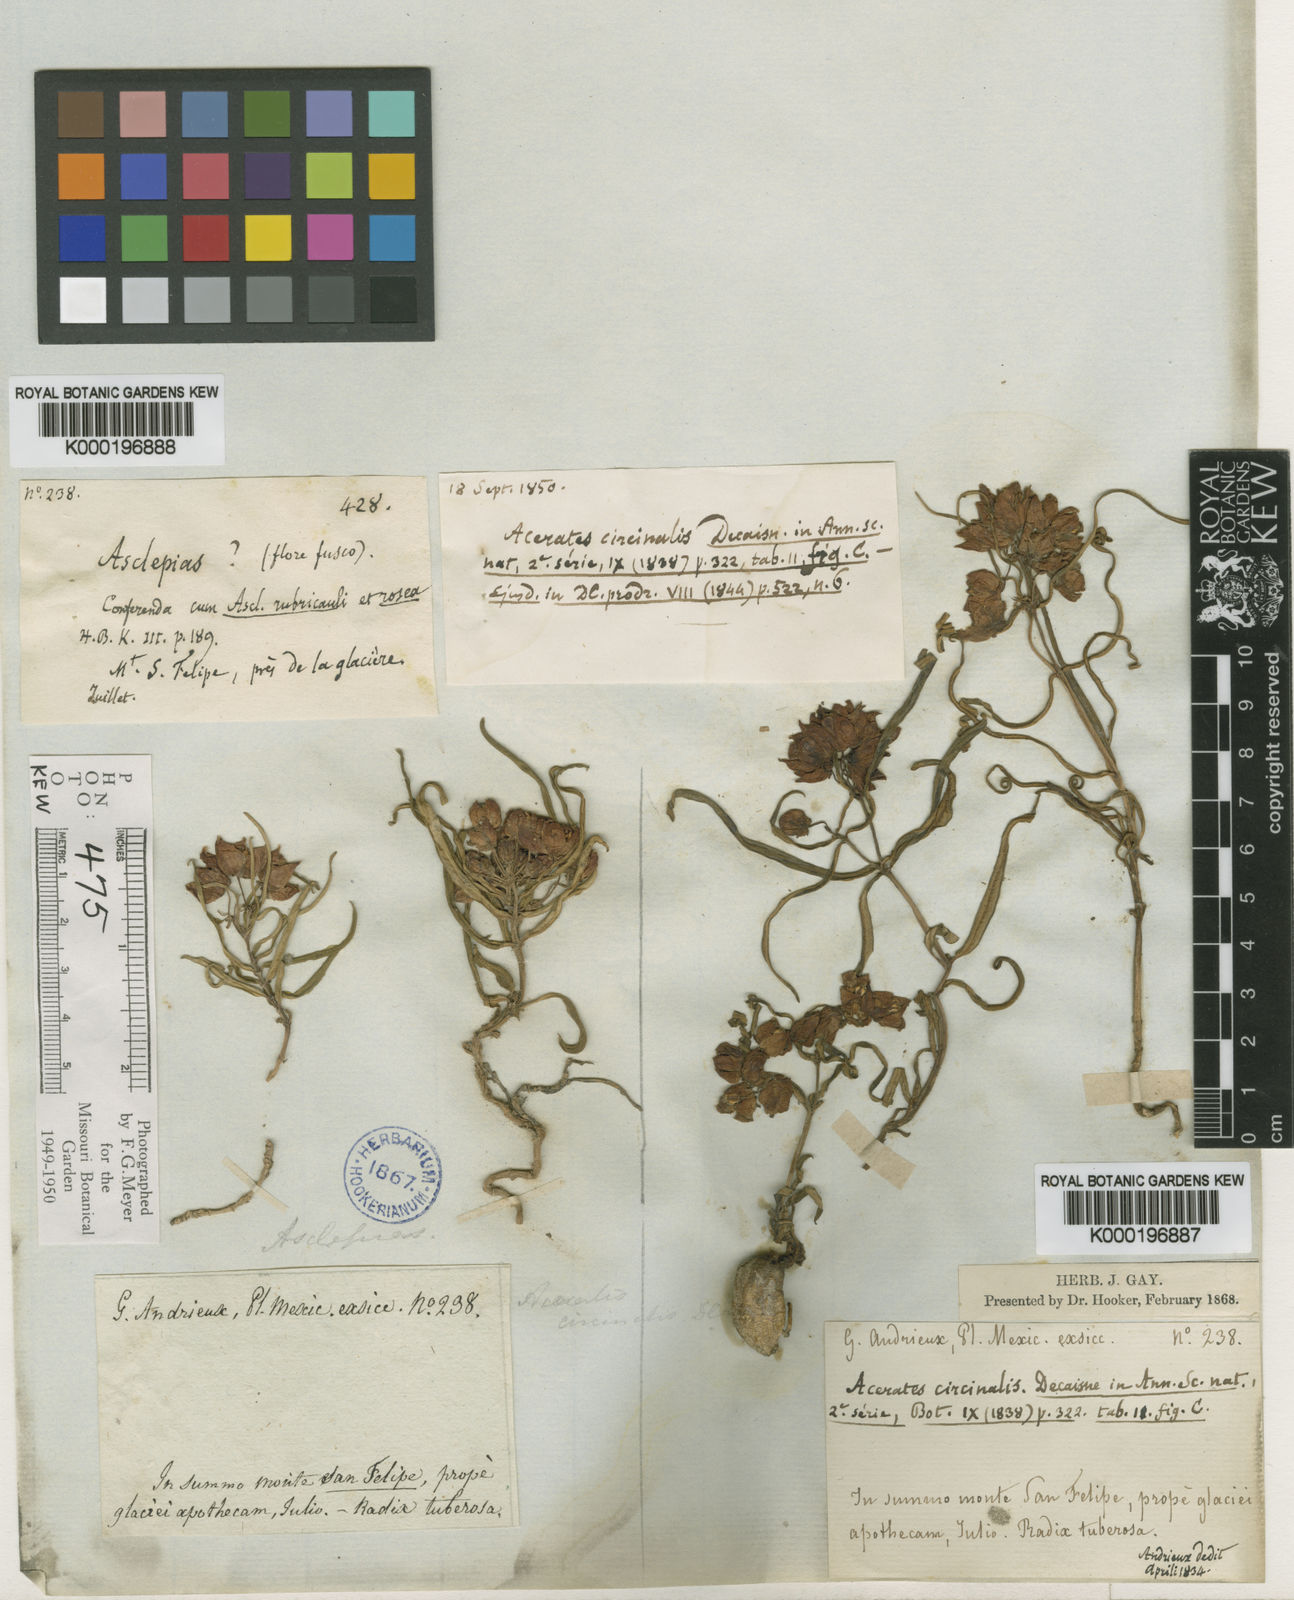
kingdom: Plantae
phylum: Tracheophyta
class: Magnoliopsida
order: Gentianales
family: Apocynaceae
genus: Asclepias
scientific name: Asclepias circinalis
